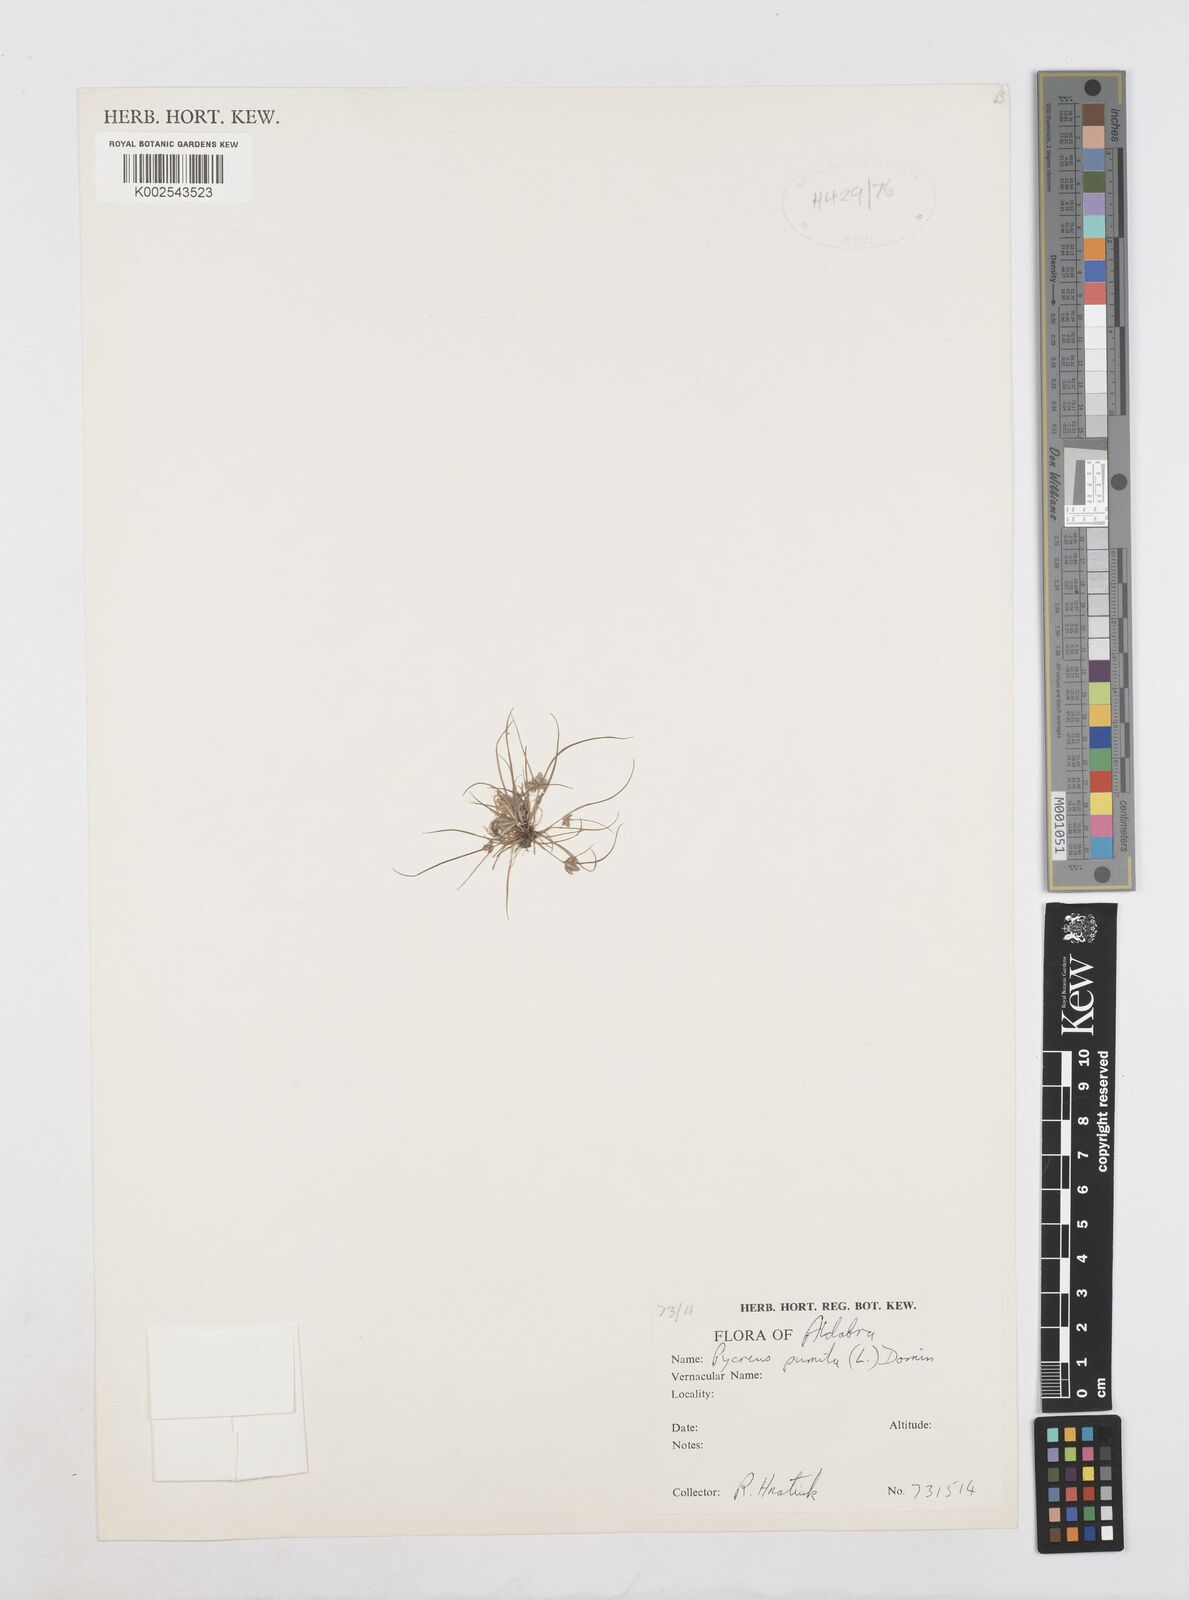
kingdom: Plantae
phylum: Tracheophyta
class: Liliopsida
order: Poales
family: Cyperaceae
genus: Cyperus
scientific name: Cyperus pumilus
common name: Low flatsedge
